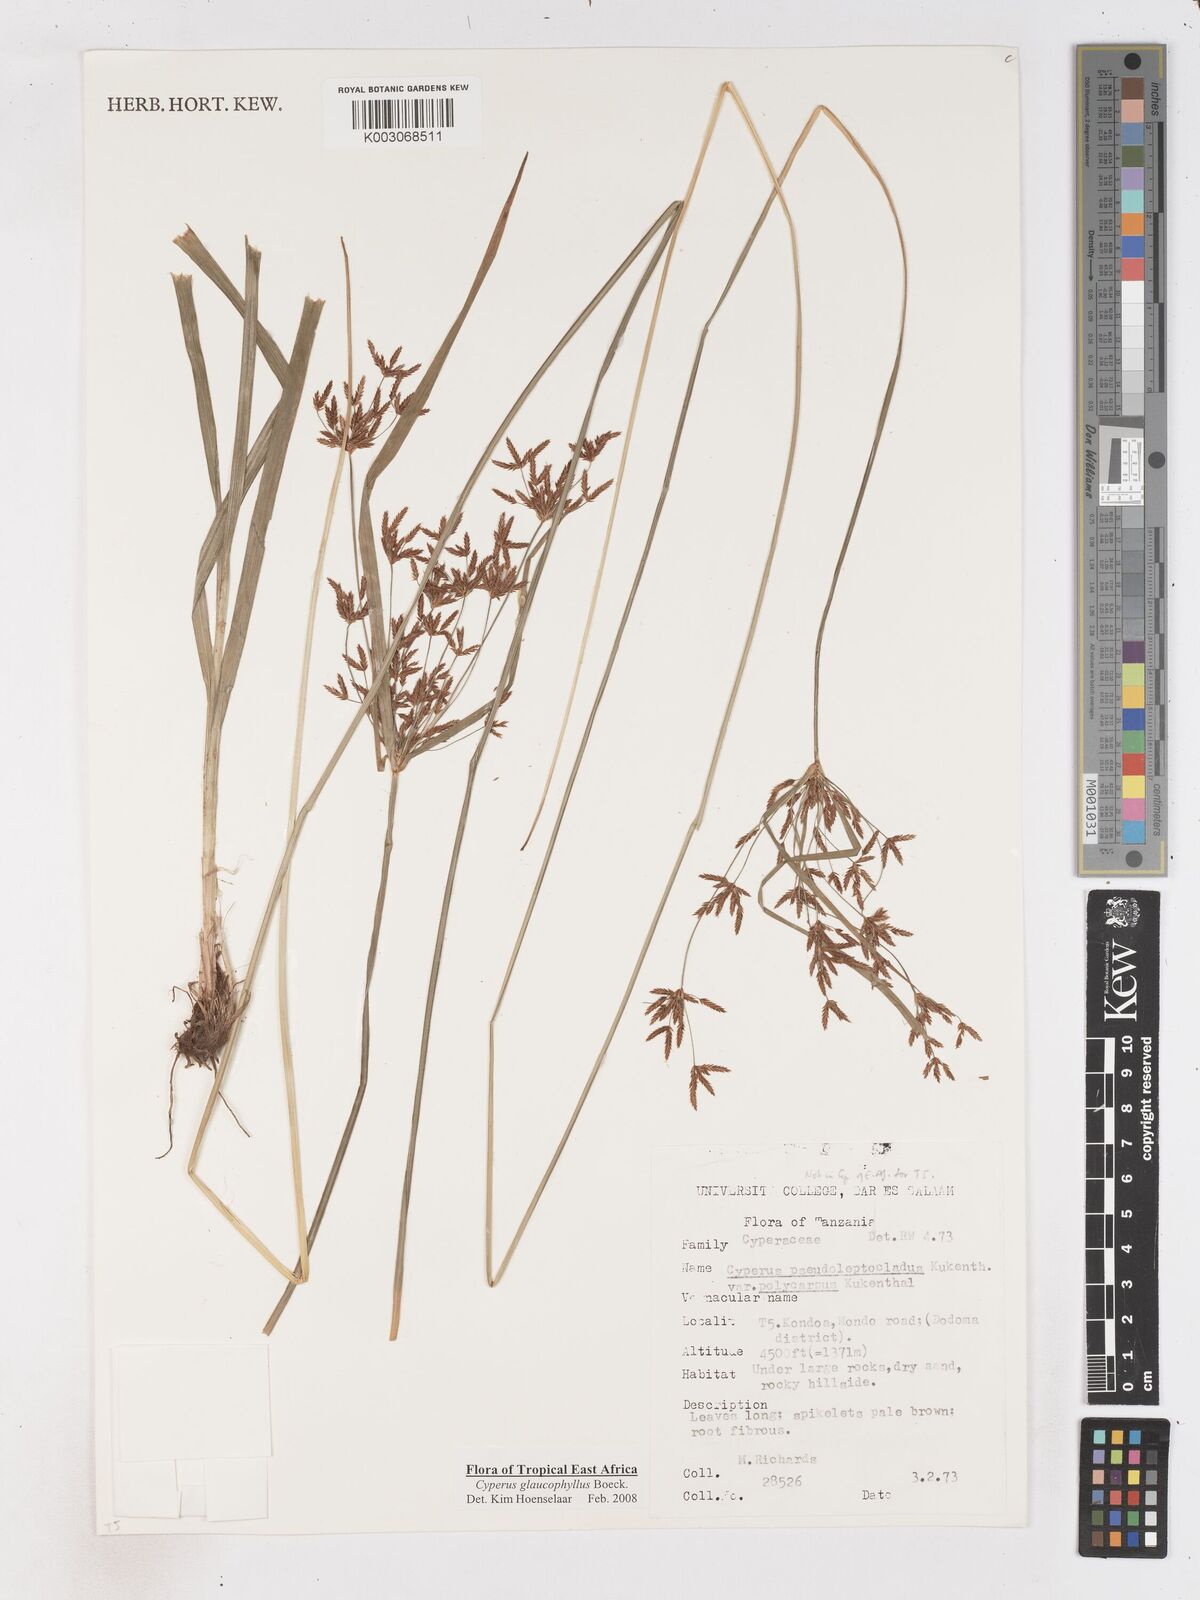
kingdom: Plantae
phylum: Tracheophyta
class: Liliopsida
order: Poales
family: Cyperaceae
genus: Cyperus
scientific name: Cyperus glaucophyllus
